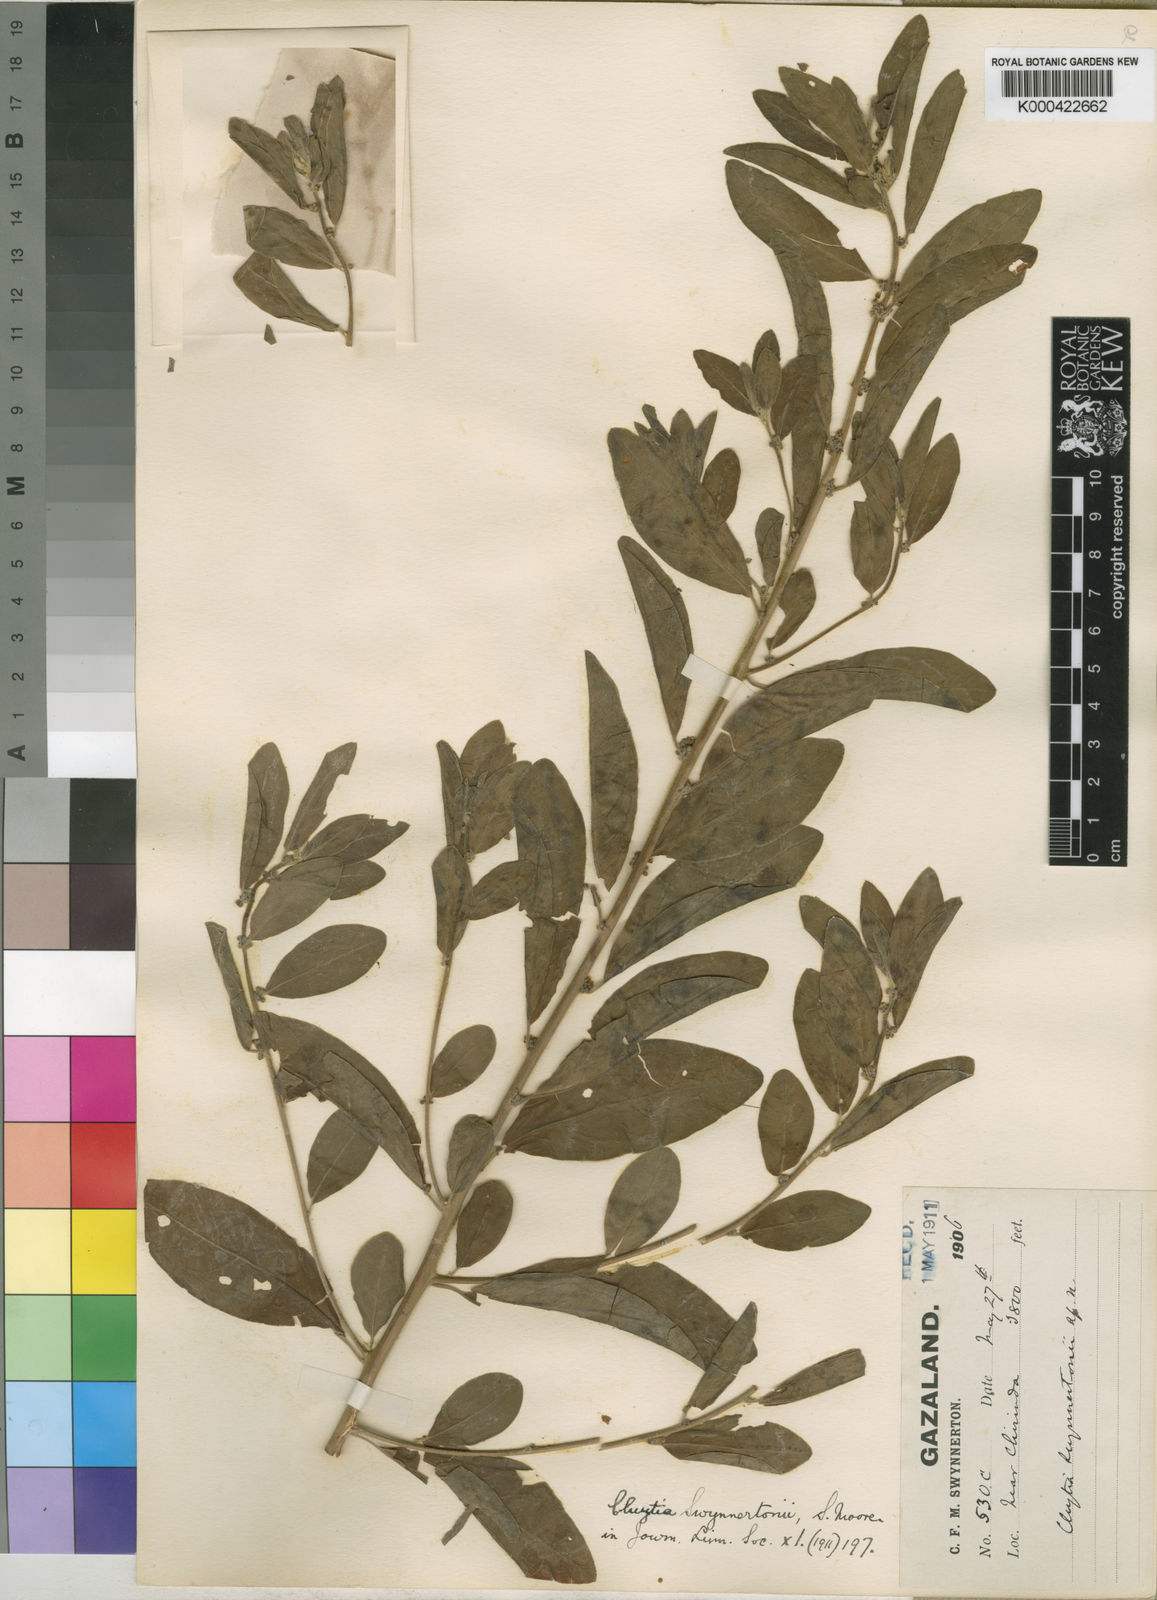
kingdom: Plantae
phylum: Tracheophyta
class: Magnoliopsida
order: Malpighiales
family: Peraceae
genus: Clutia
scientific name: Clutia swynnertonii
